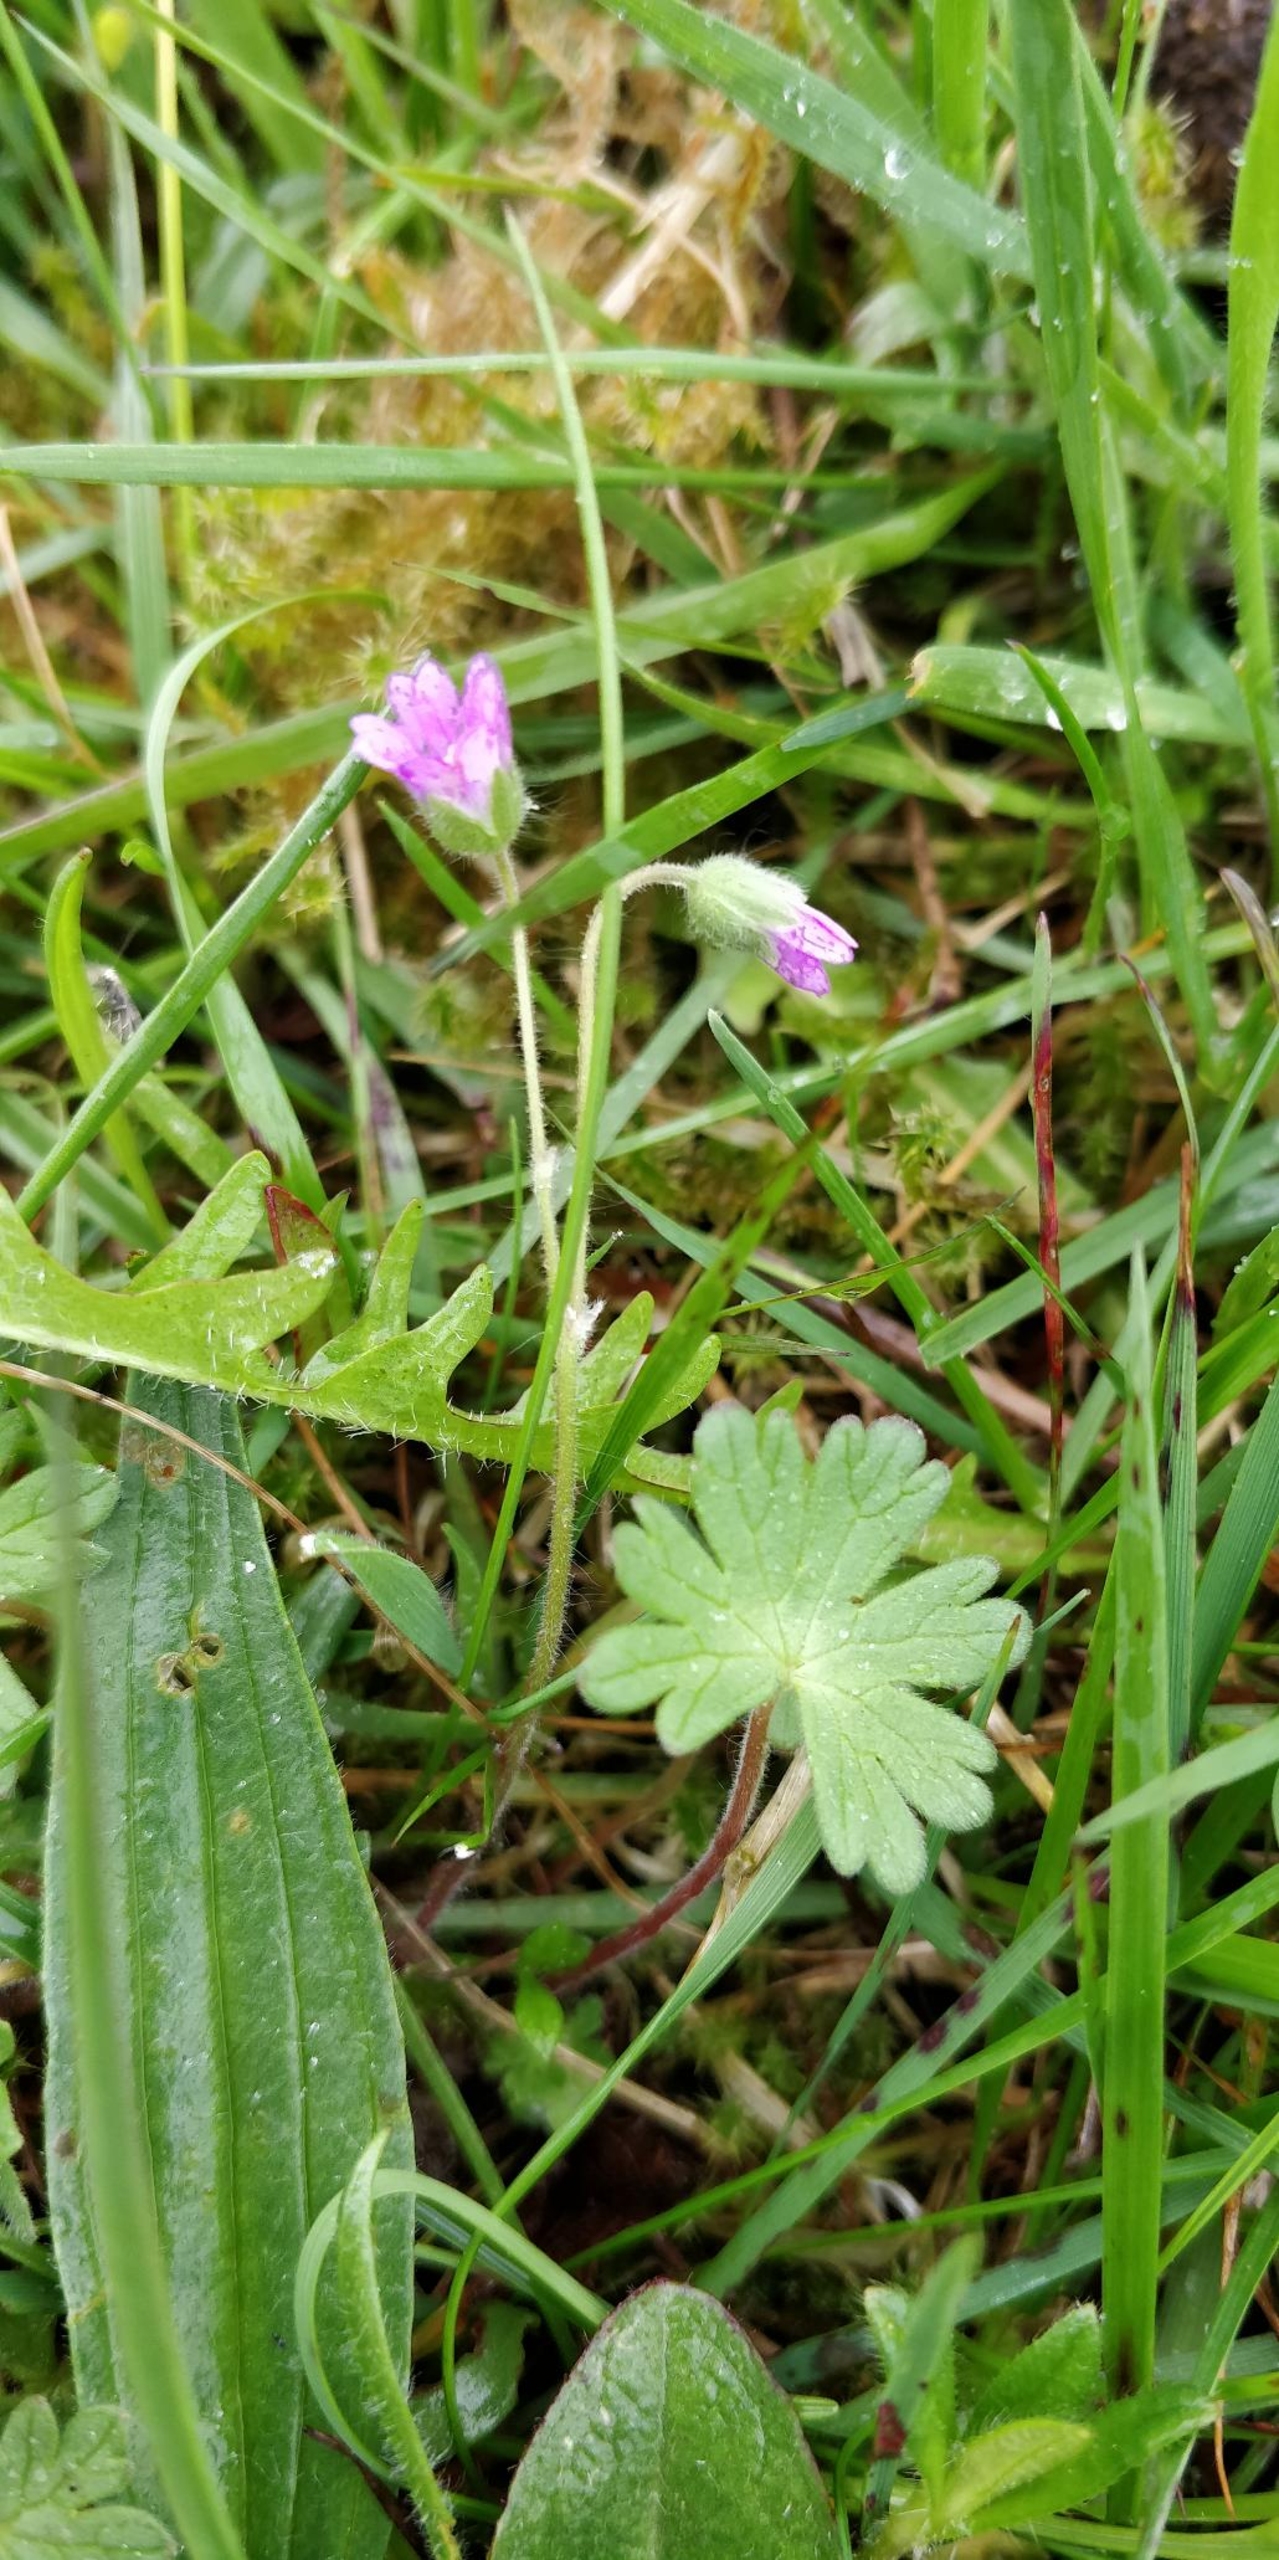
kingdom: Plantae
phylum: Tracheophyta
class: Magnoliopsida
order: Geraniales
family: Geraniaceae
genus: Geranium
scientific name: Geranium molle
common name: Blød storkenæb
